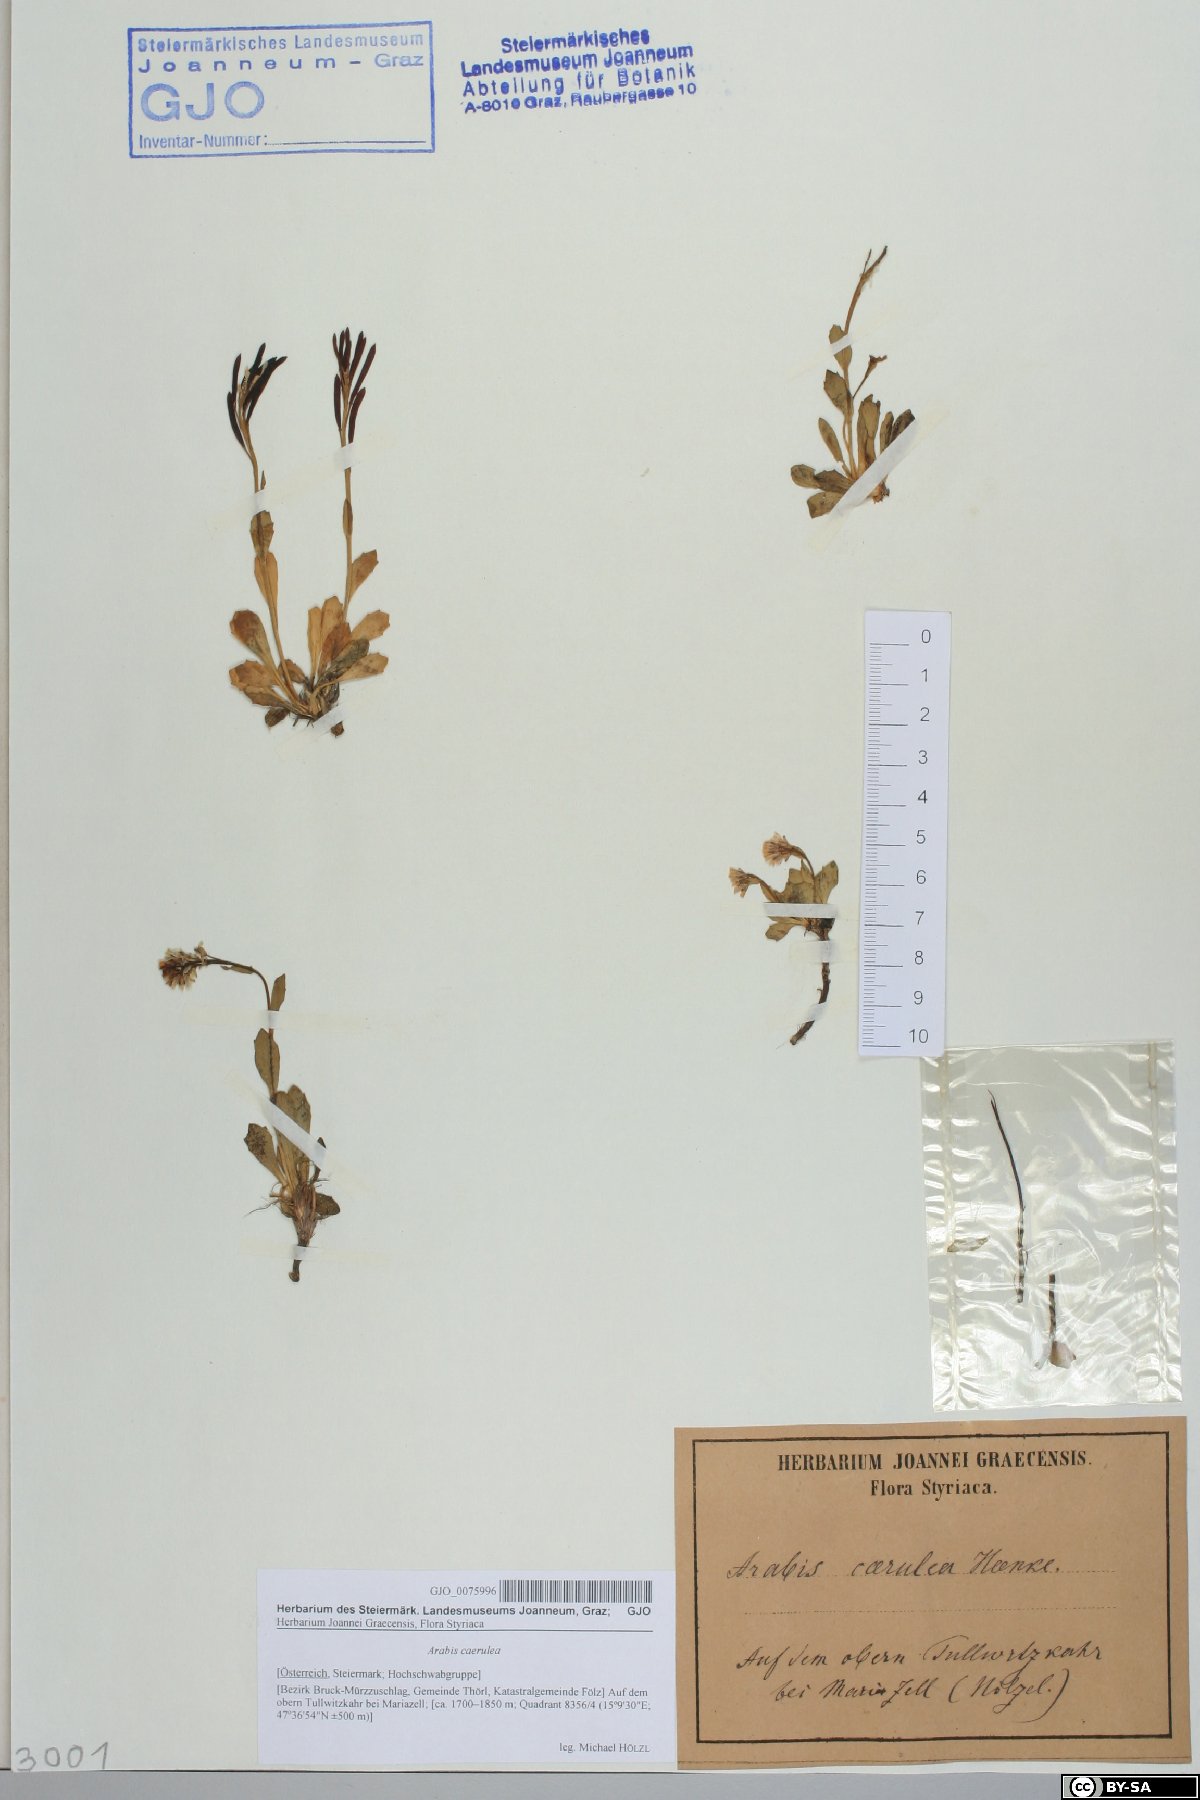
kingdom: Plantae
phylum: Tracheophyta
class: Magnoliopsida
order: Brassicales
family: Brassicaceae
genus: Arabis
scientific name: Arabis caerulea
